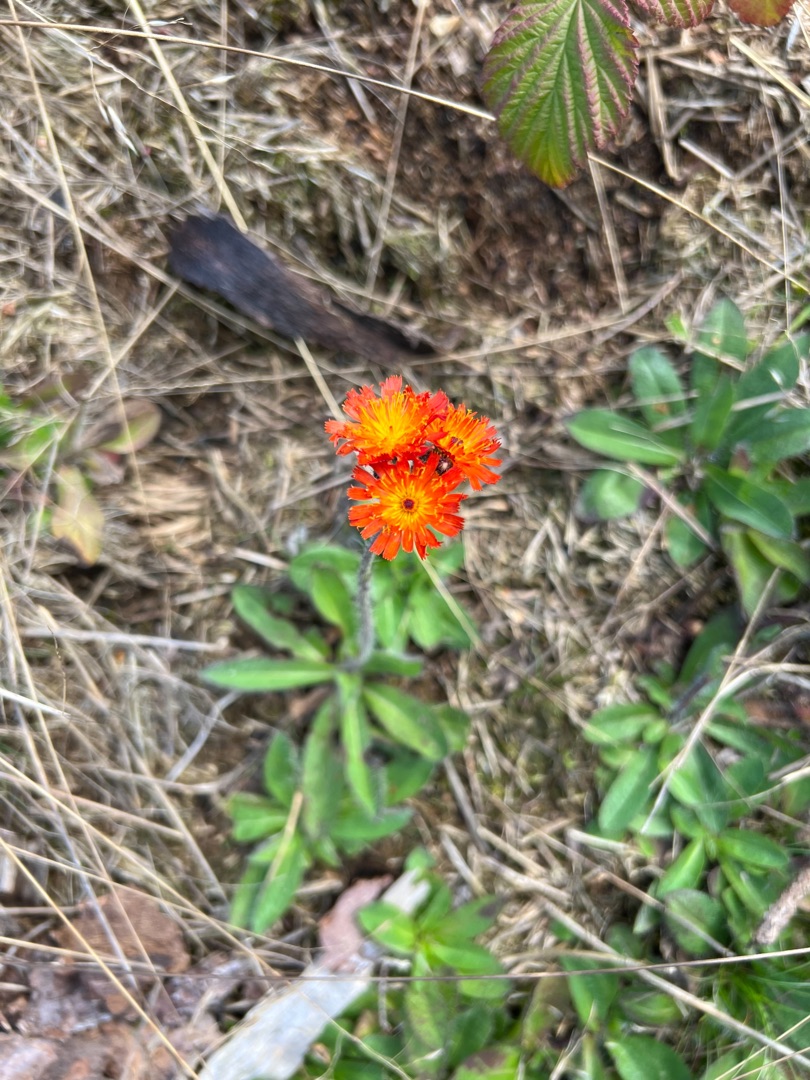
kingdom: Plantae
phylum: Tracheophyta
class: Magnoliopsida
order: Asterales
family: Asteraceae
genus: Pilosella
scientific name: Pilosella aurantiaca
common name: Pomerans-høgeurt
